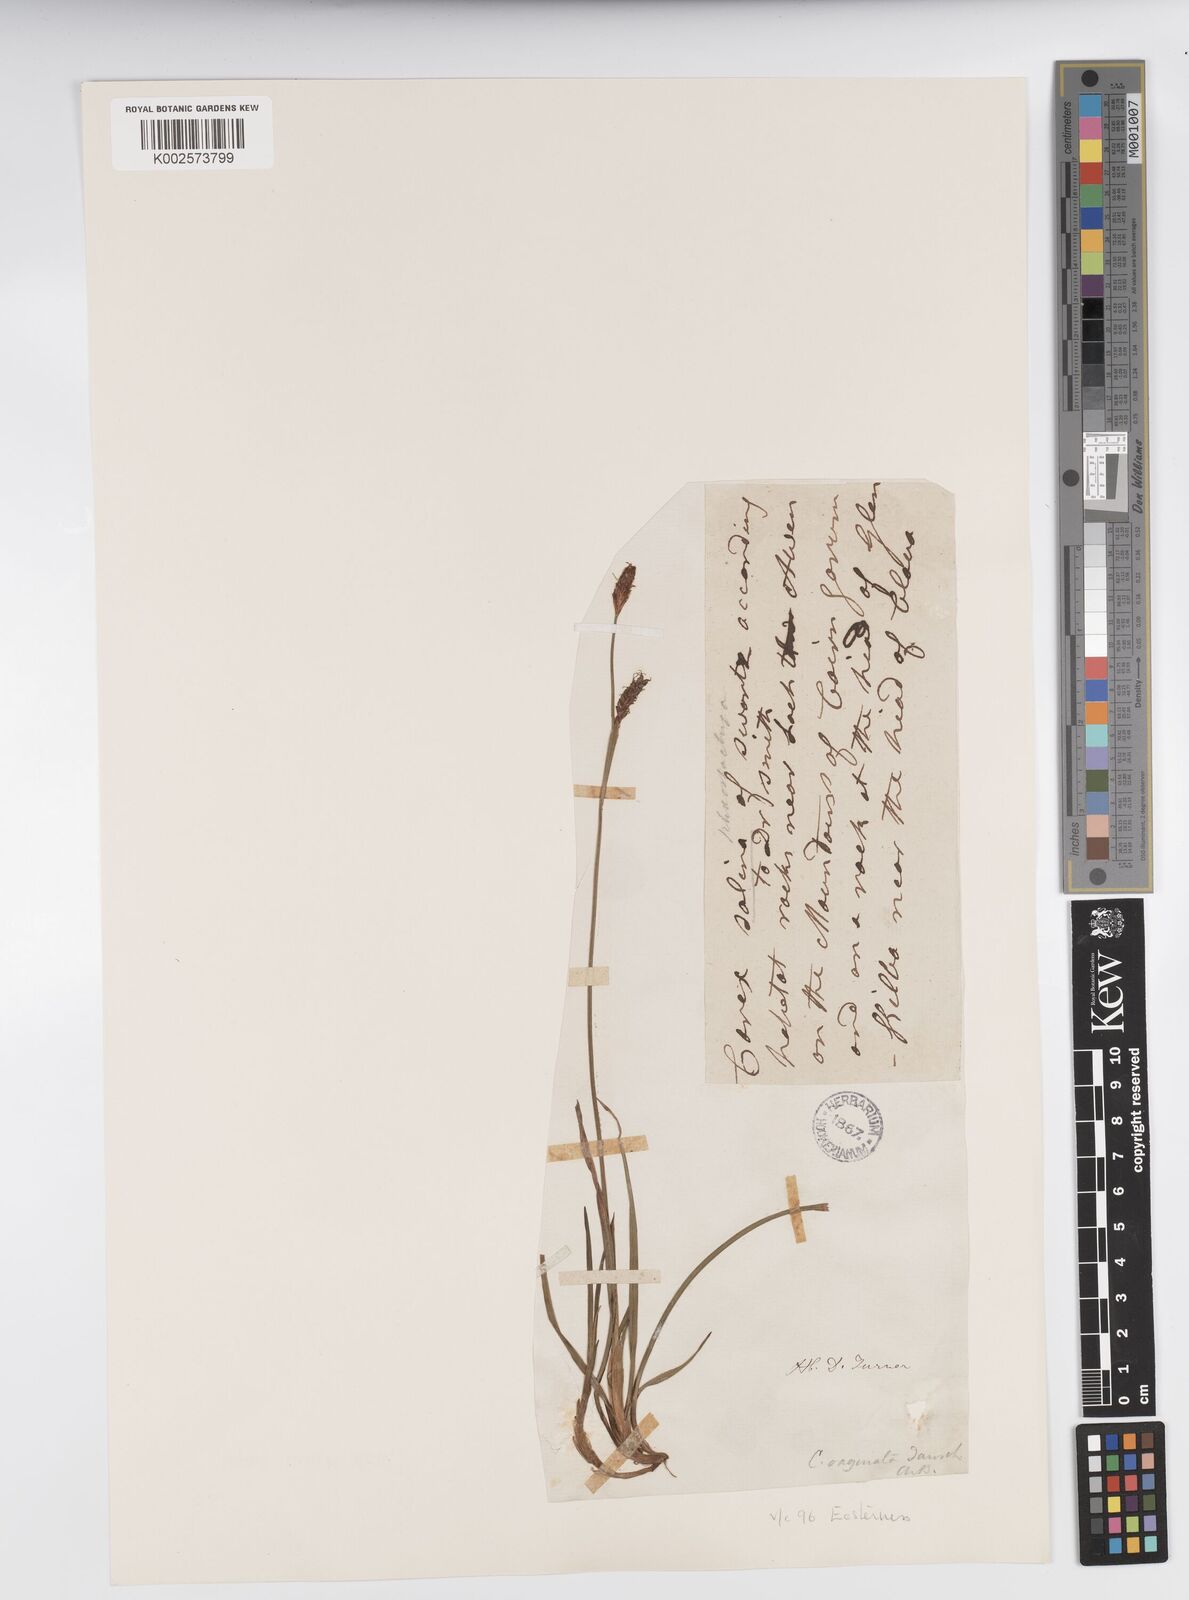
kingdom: Plantae
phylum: Tracheophyta
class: Liliopsida
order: Poales
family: Cyperaceae
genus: Carex
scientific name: Carex vaginata
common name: Sheathed sedge
